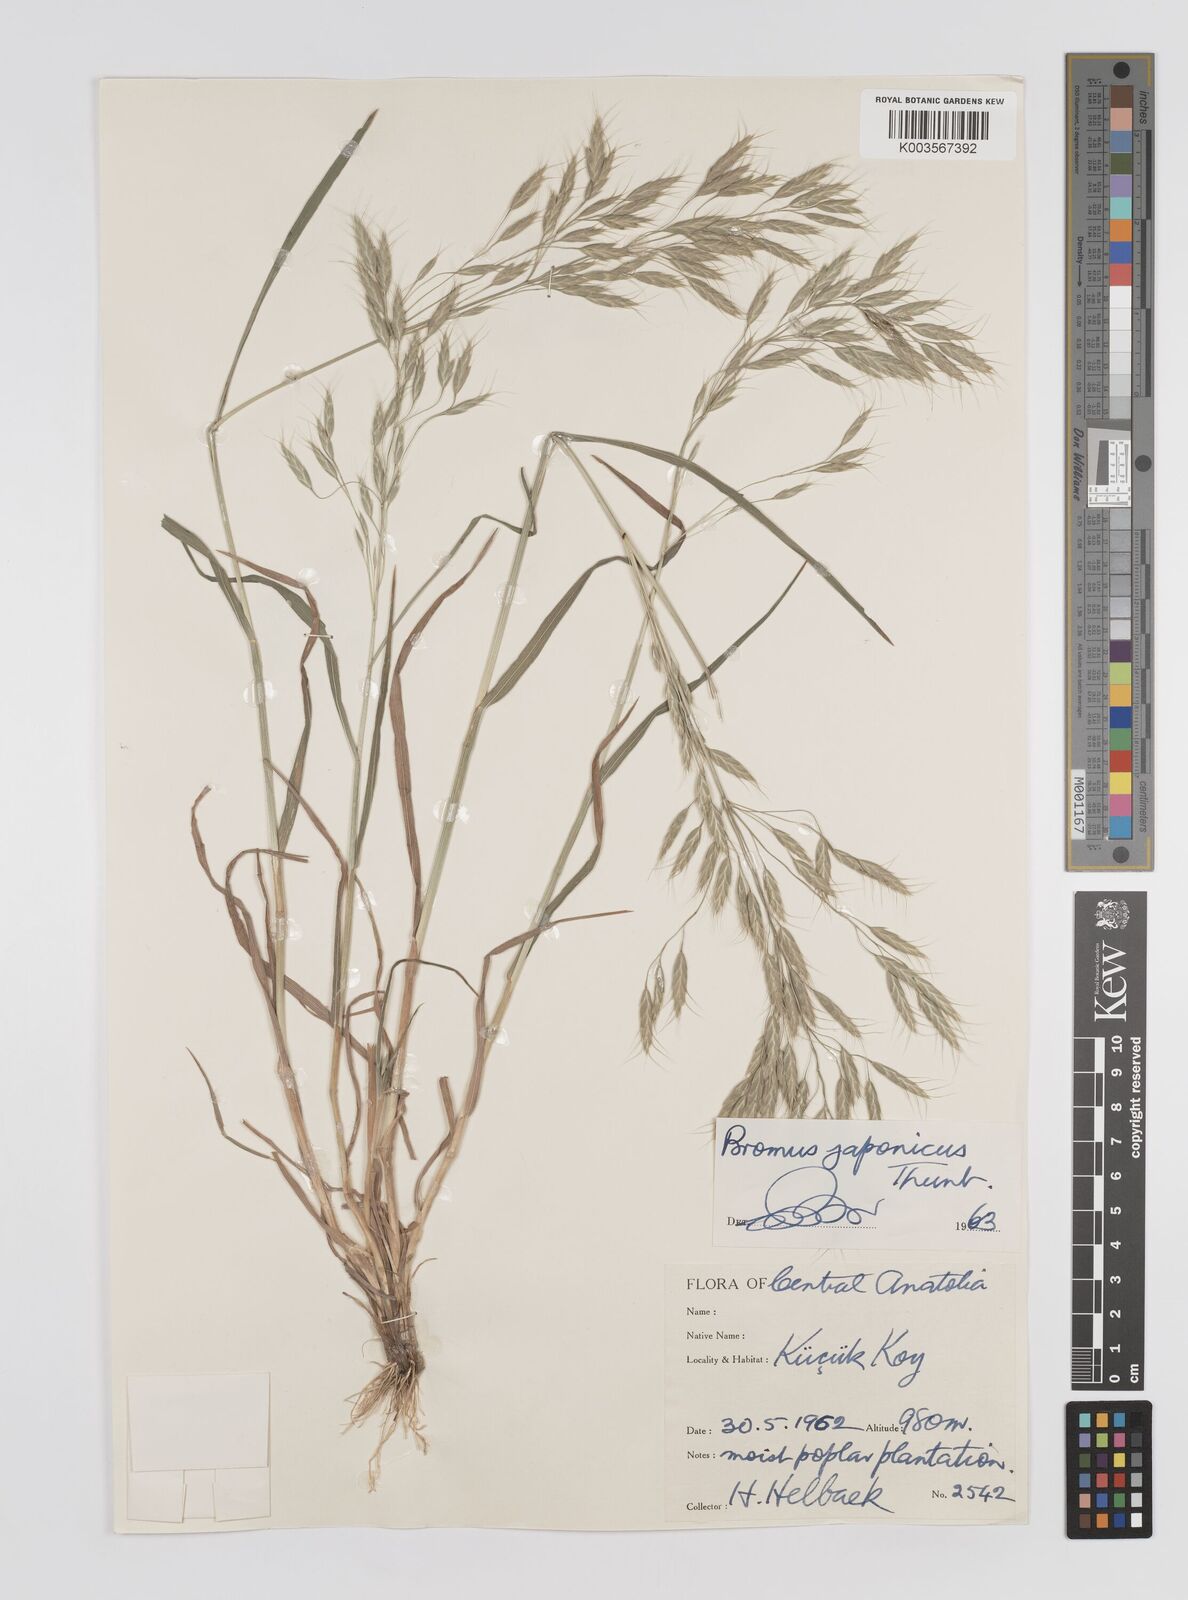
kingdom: Plantae
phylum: Tracheophyta
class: Liliopsida
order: Poales
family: Poaceae
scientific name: Poaceae
